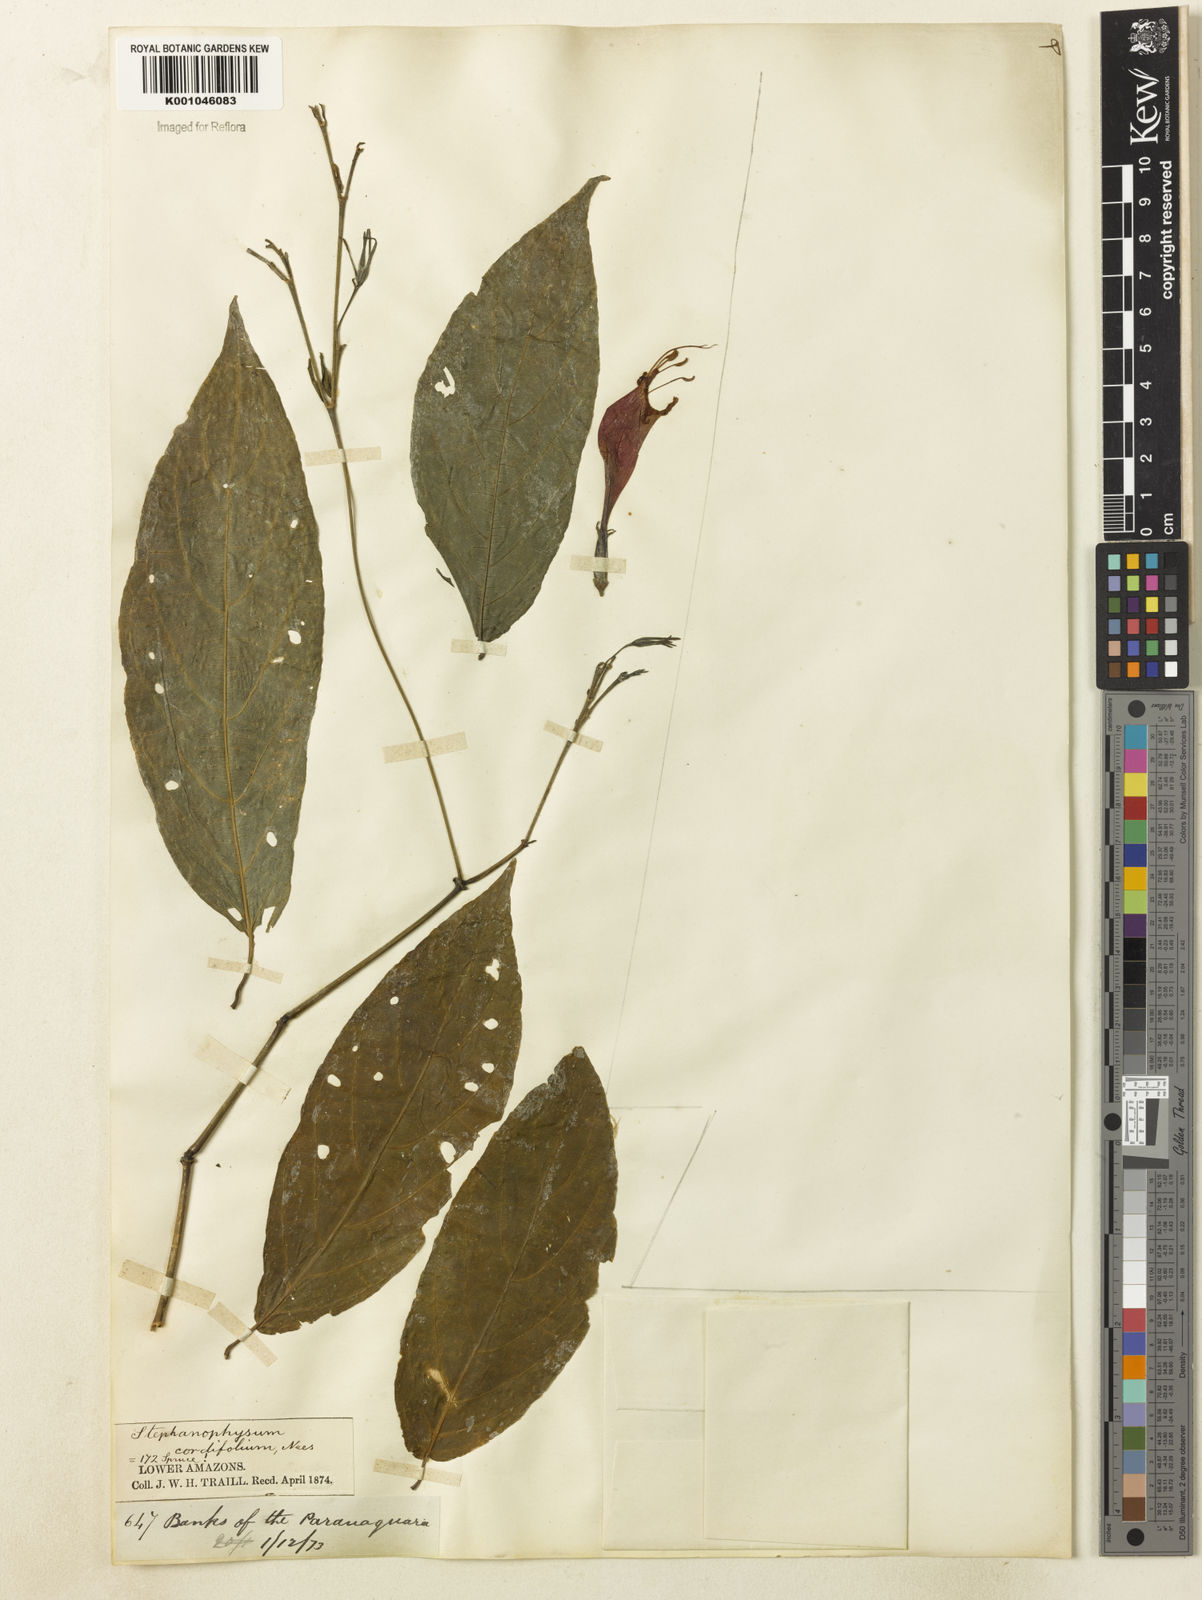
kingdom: Plantae
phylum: Tracheophyta
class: Magnoliopsida
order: Lamiales
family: Acanthaceae
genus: Ruellia
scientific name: Ruellia inflata
